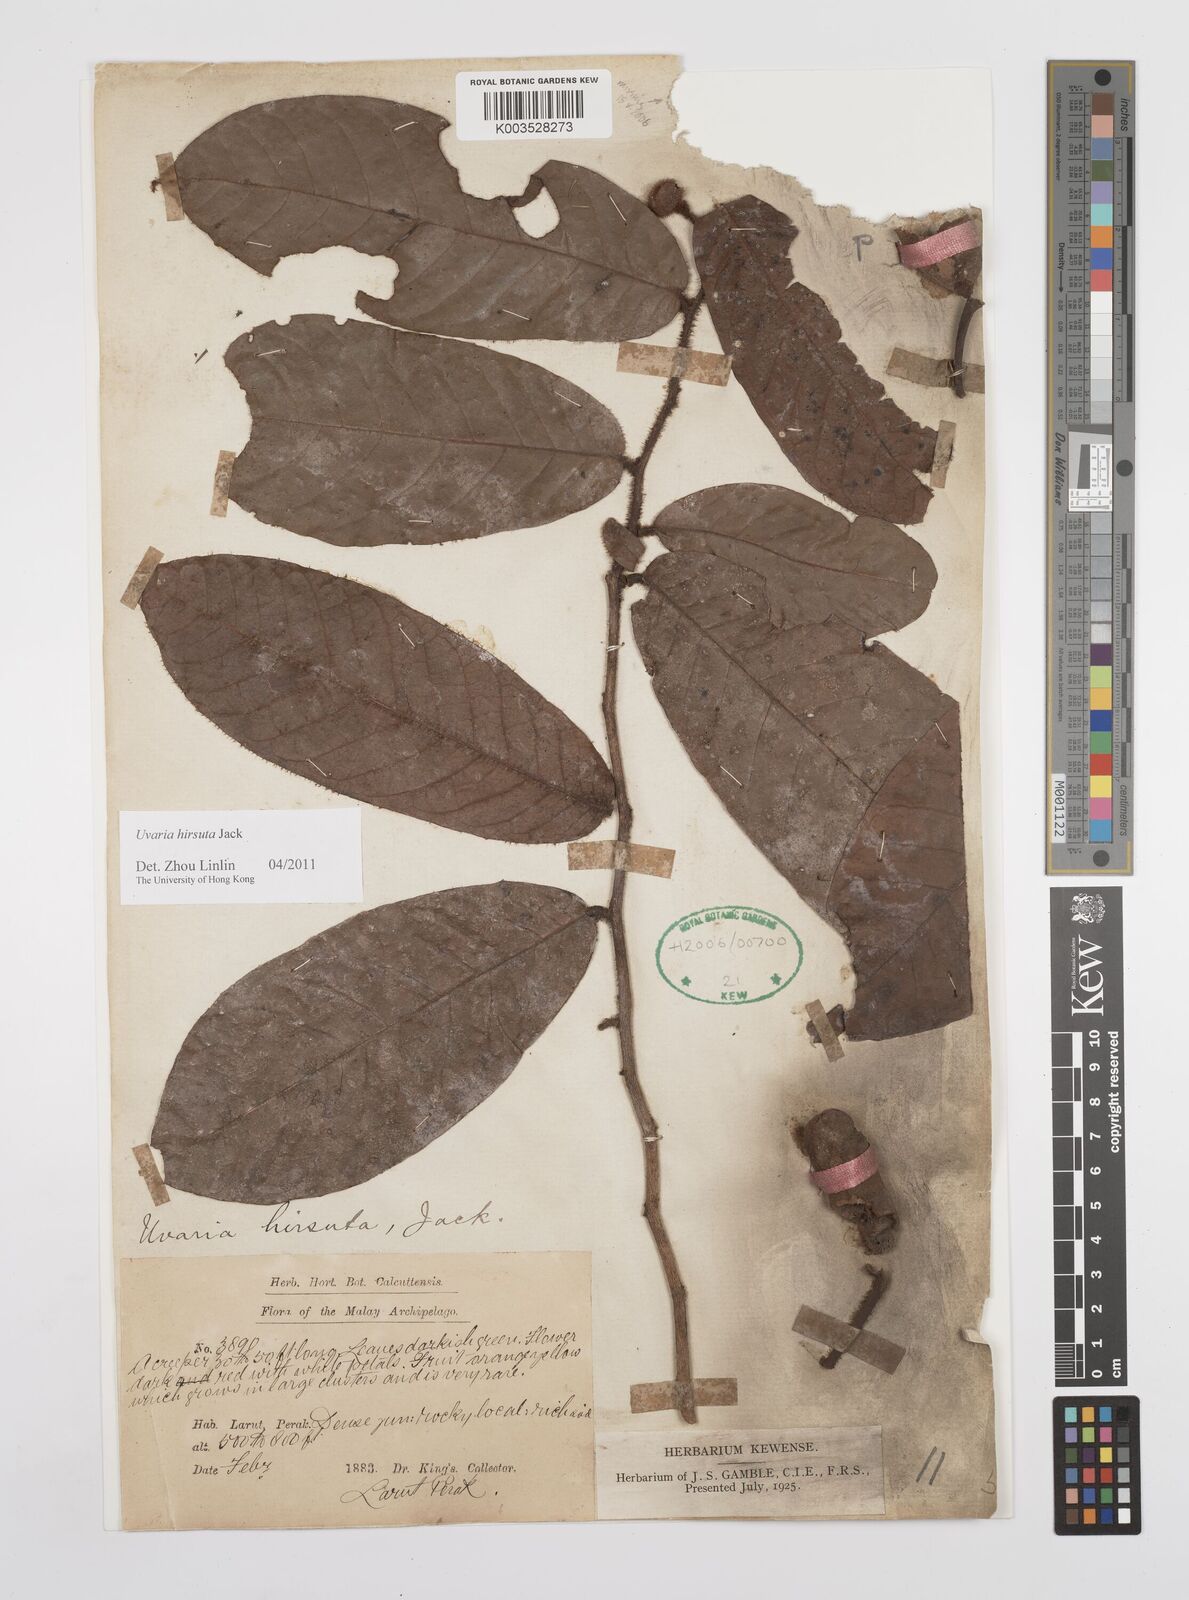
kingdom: Plantae
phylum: Tracheophyta
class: Magnoliopsida
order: Magnoliales
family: Annonaceae
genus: Guatteria
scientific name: Guatteria australis
